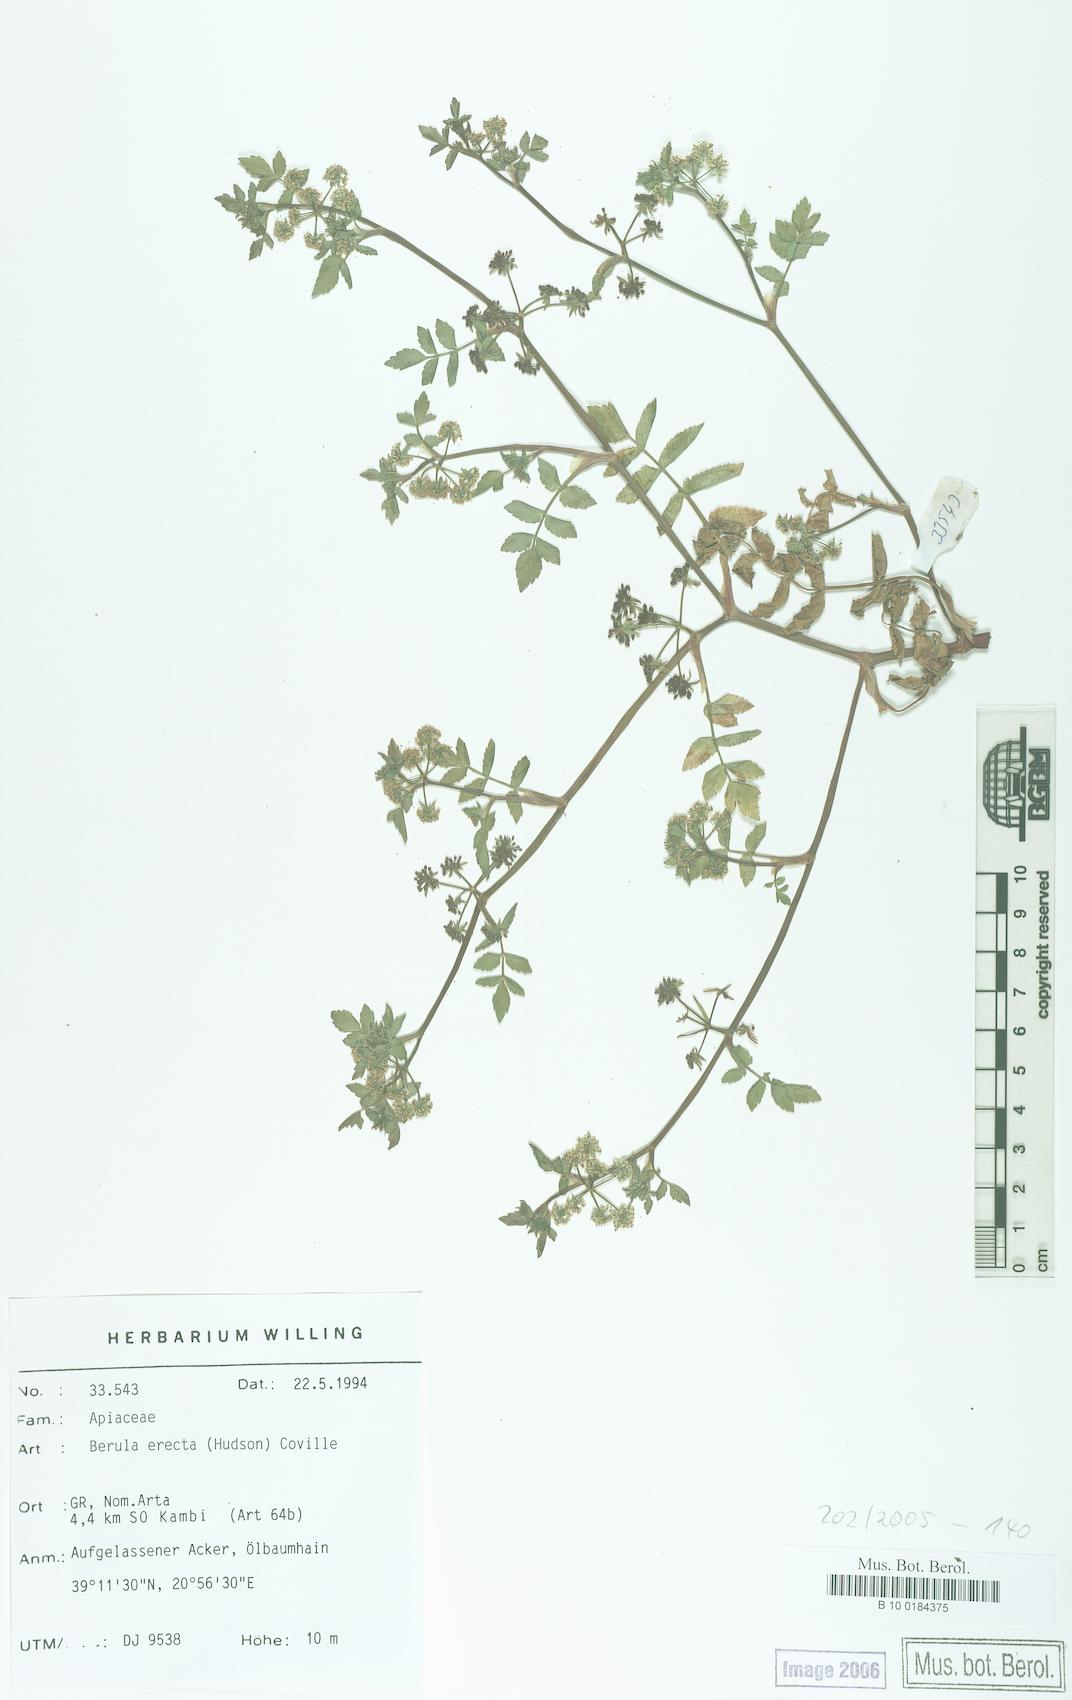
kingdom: Plantae
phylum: Tracheophyta
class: Magnoliopsida
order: Apiales
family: Apiaceae
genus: Berula
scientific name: Berula erecta
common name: Lesser water-parsnip
